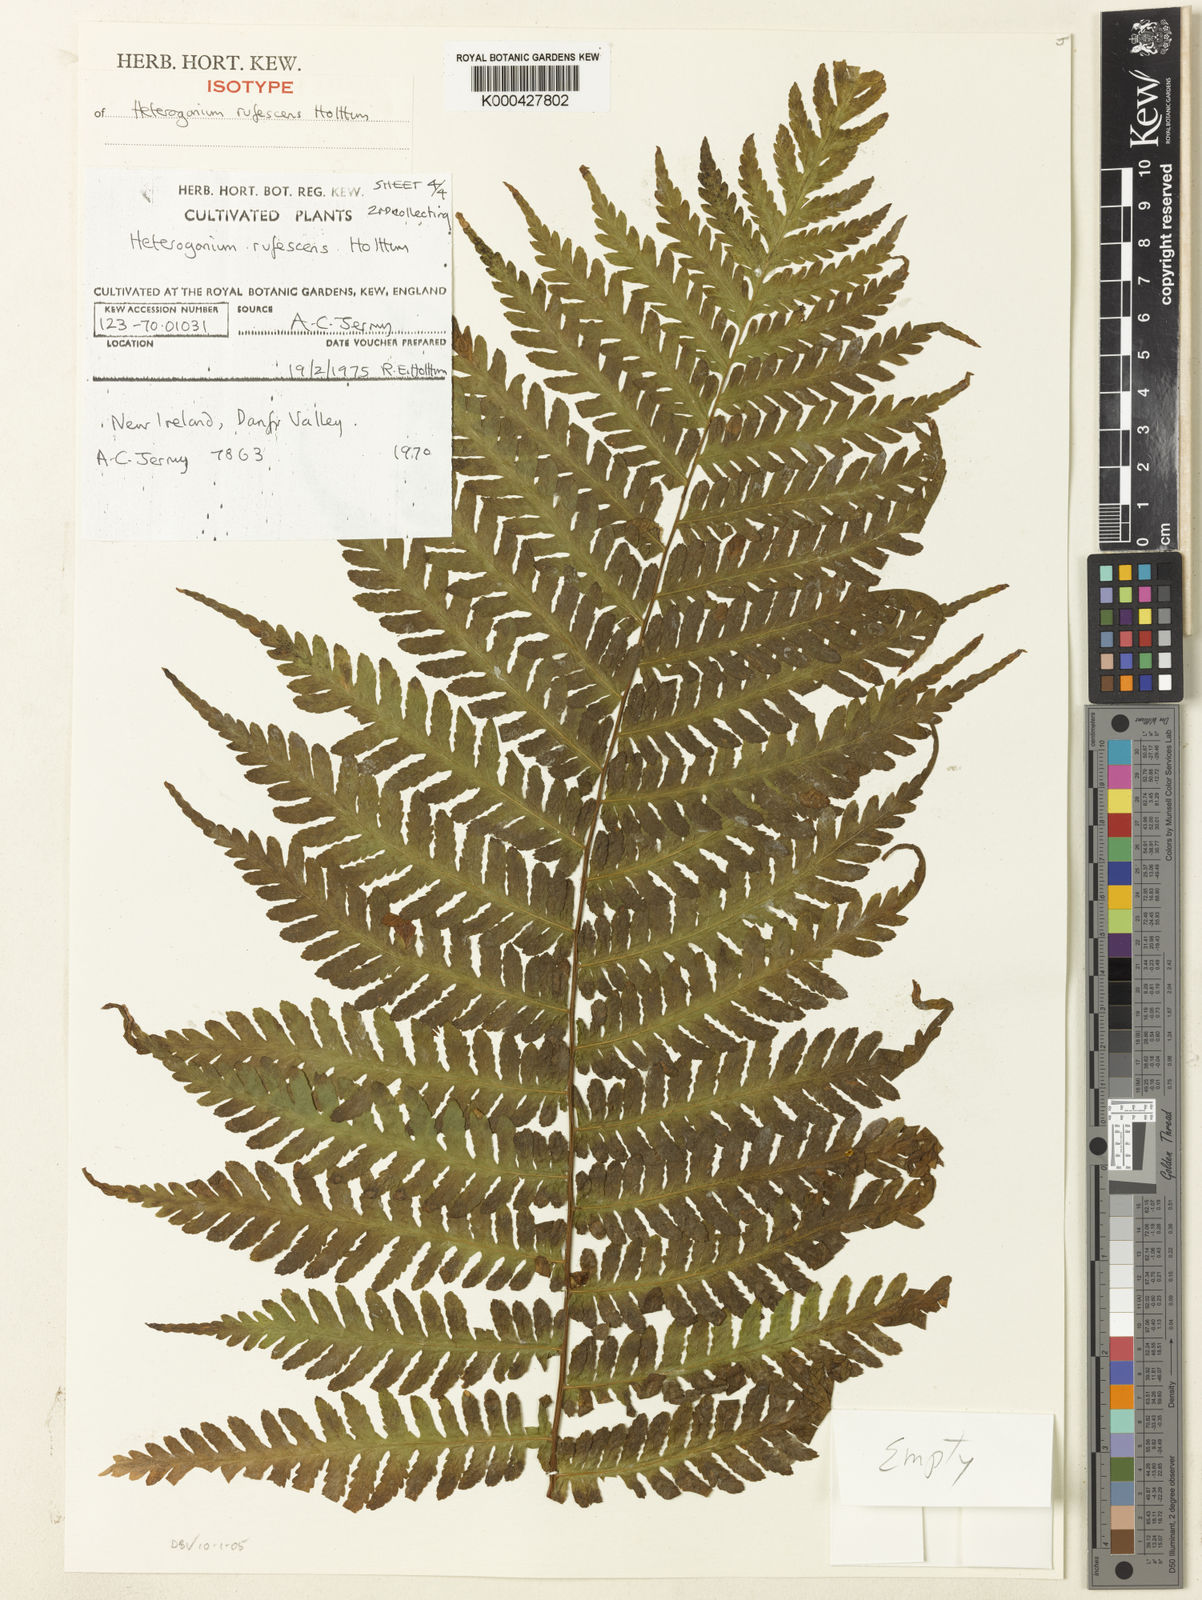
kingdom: Plantae
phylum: Tracheophyta
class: Polypodiopsida
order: Polypodiales
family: Tectariaceae
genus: Tectaria
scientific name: Tectaria jermyi
